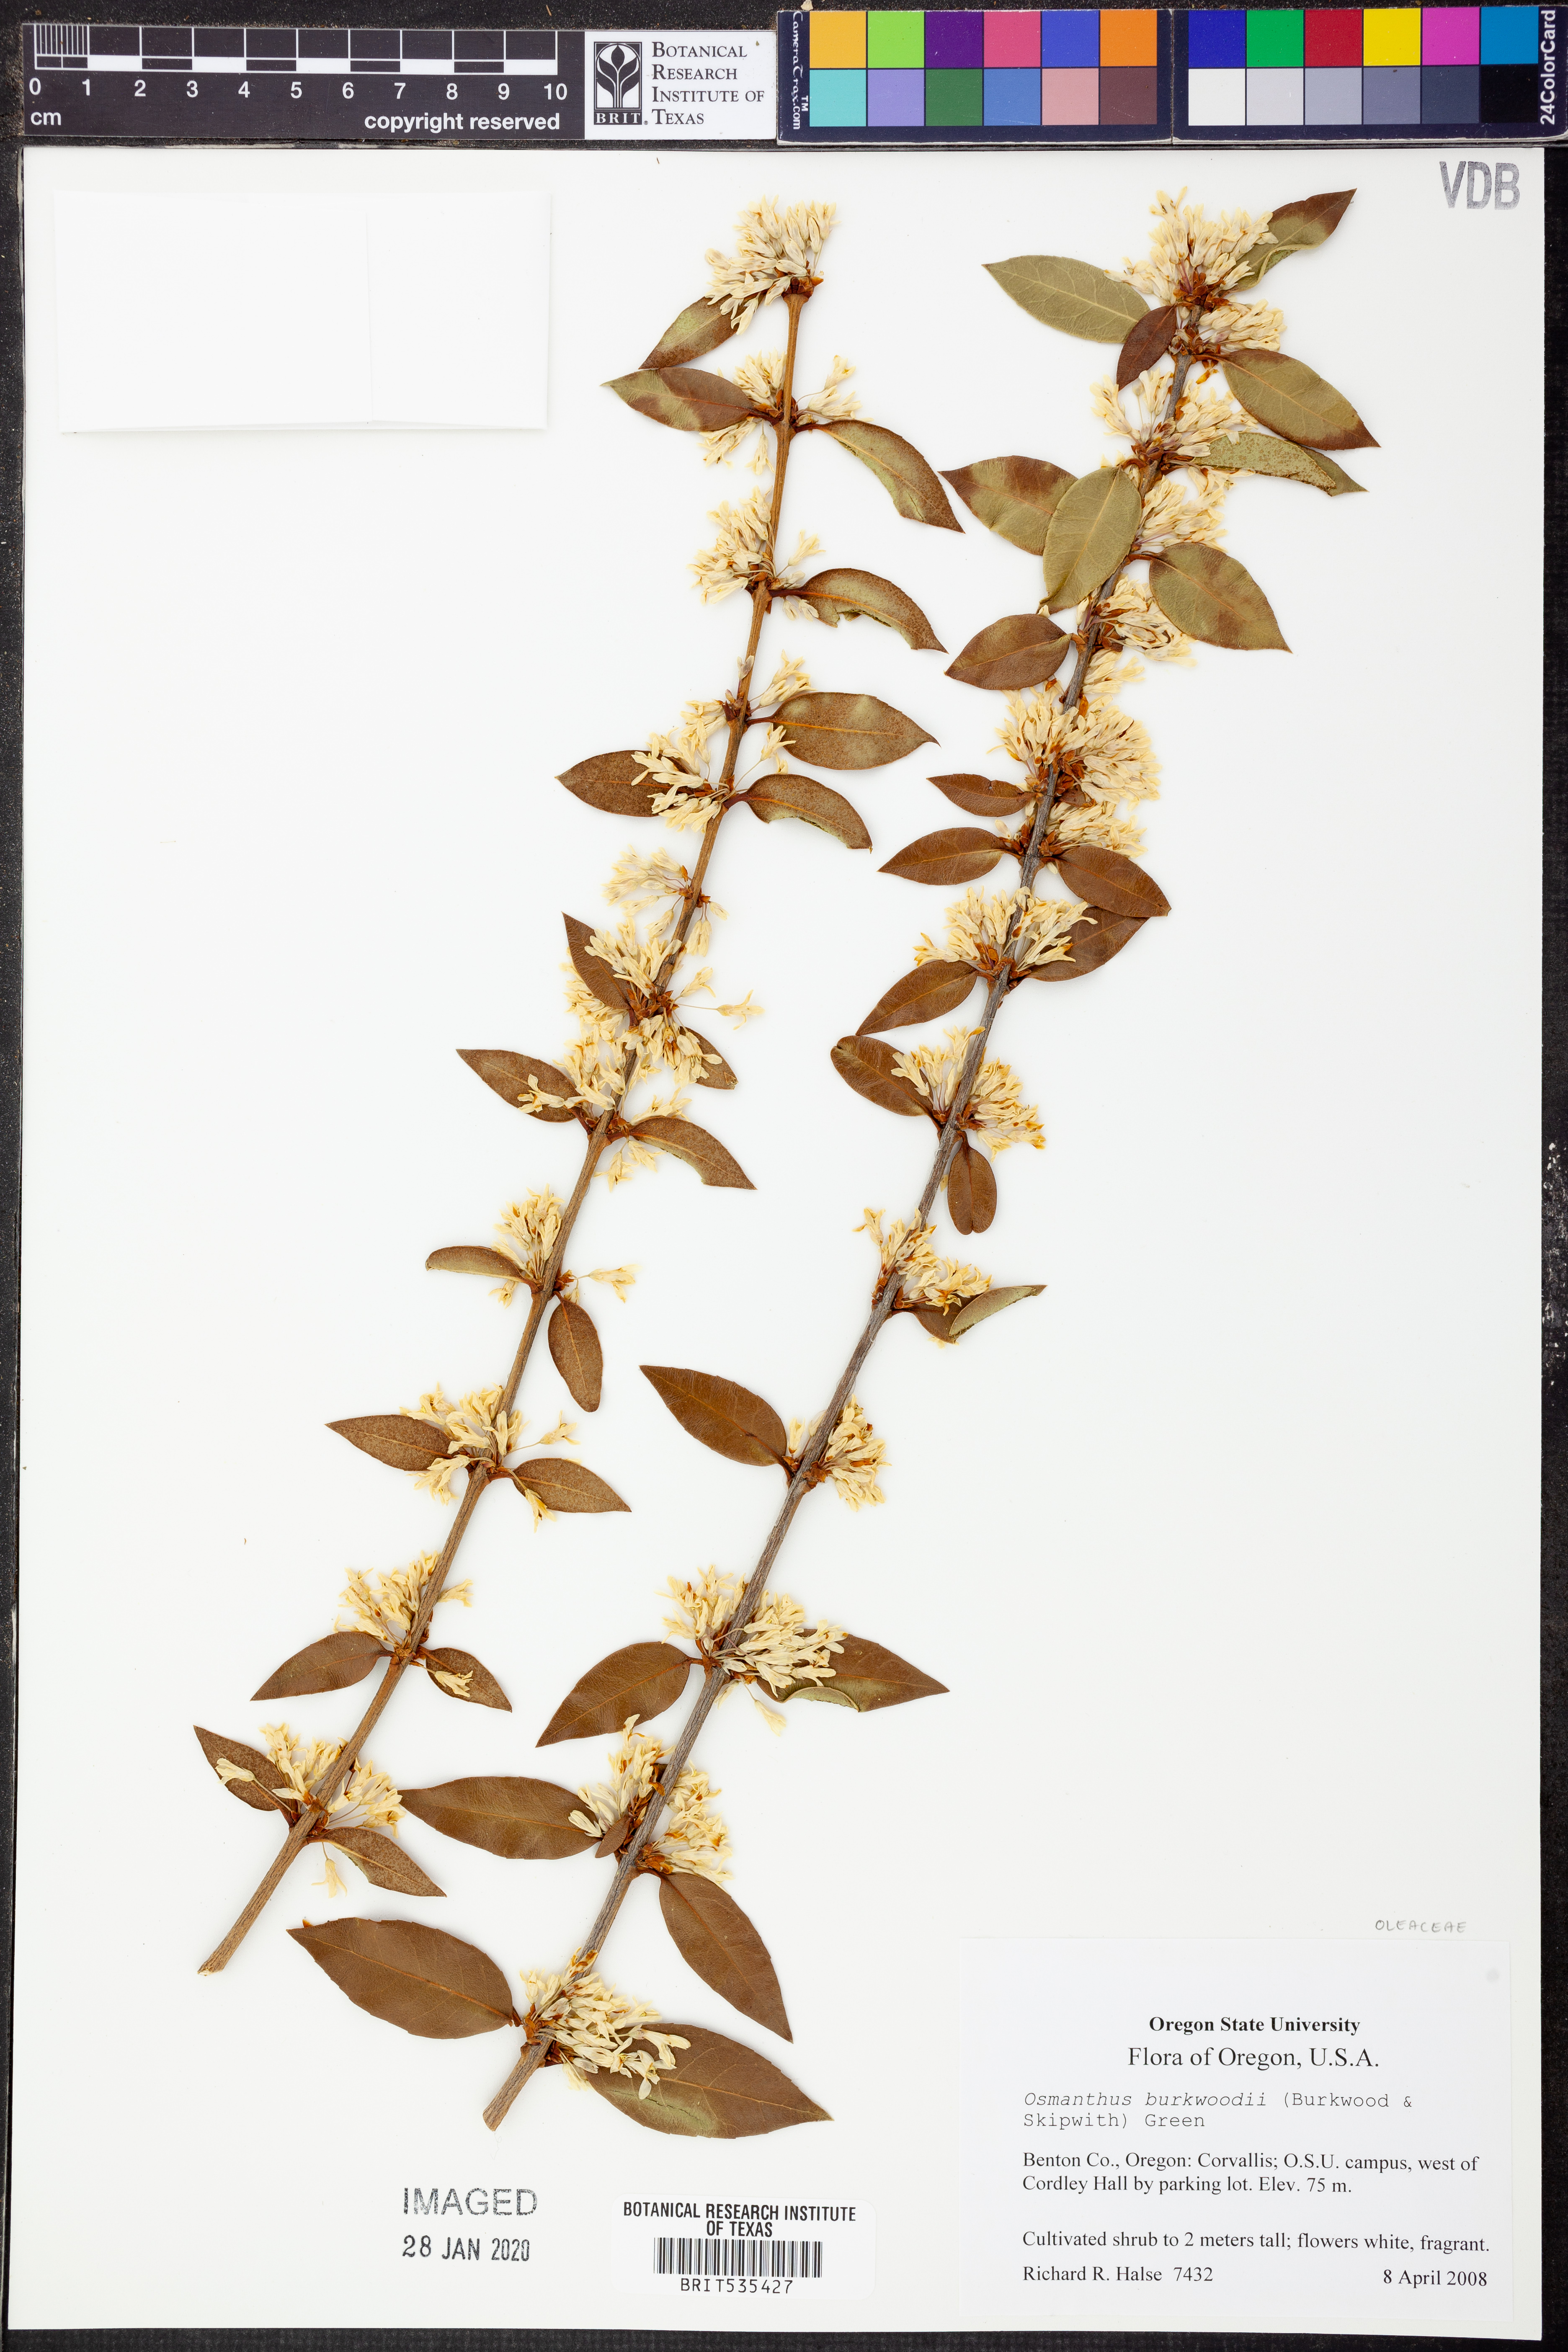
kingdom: Plantae
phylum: Tracheophyta
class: Magnoliopsida
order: Lamiales
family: Oleaceae
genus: Osmanthus
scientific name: Osmanthus burkwoodii
